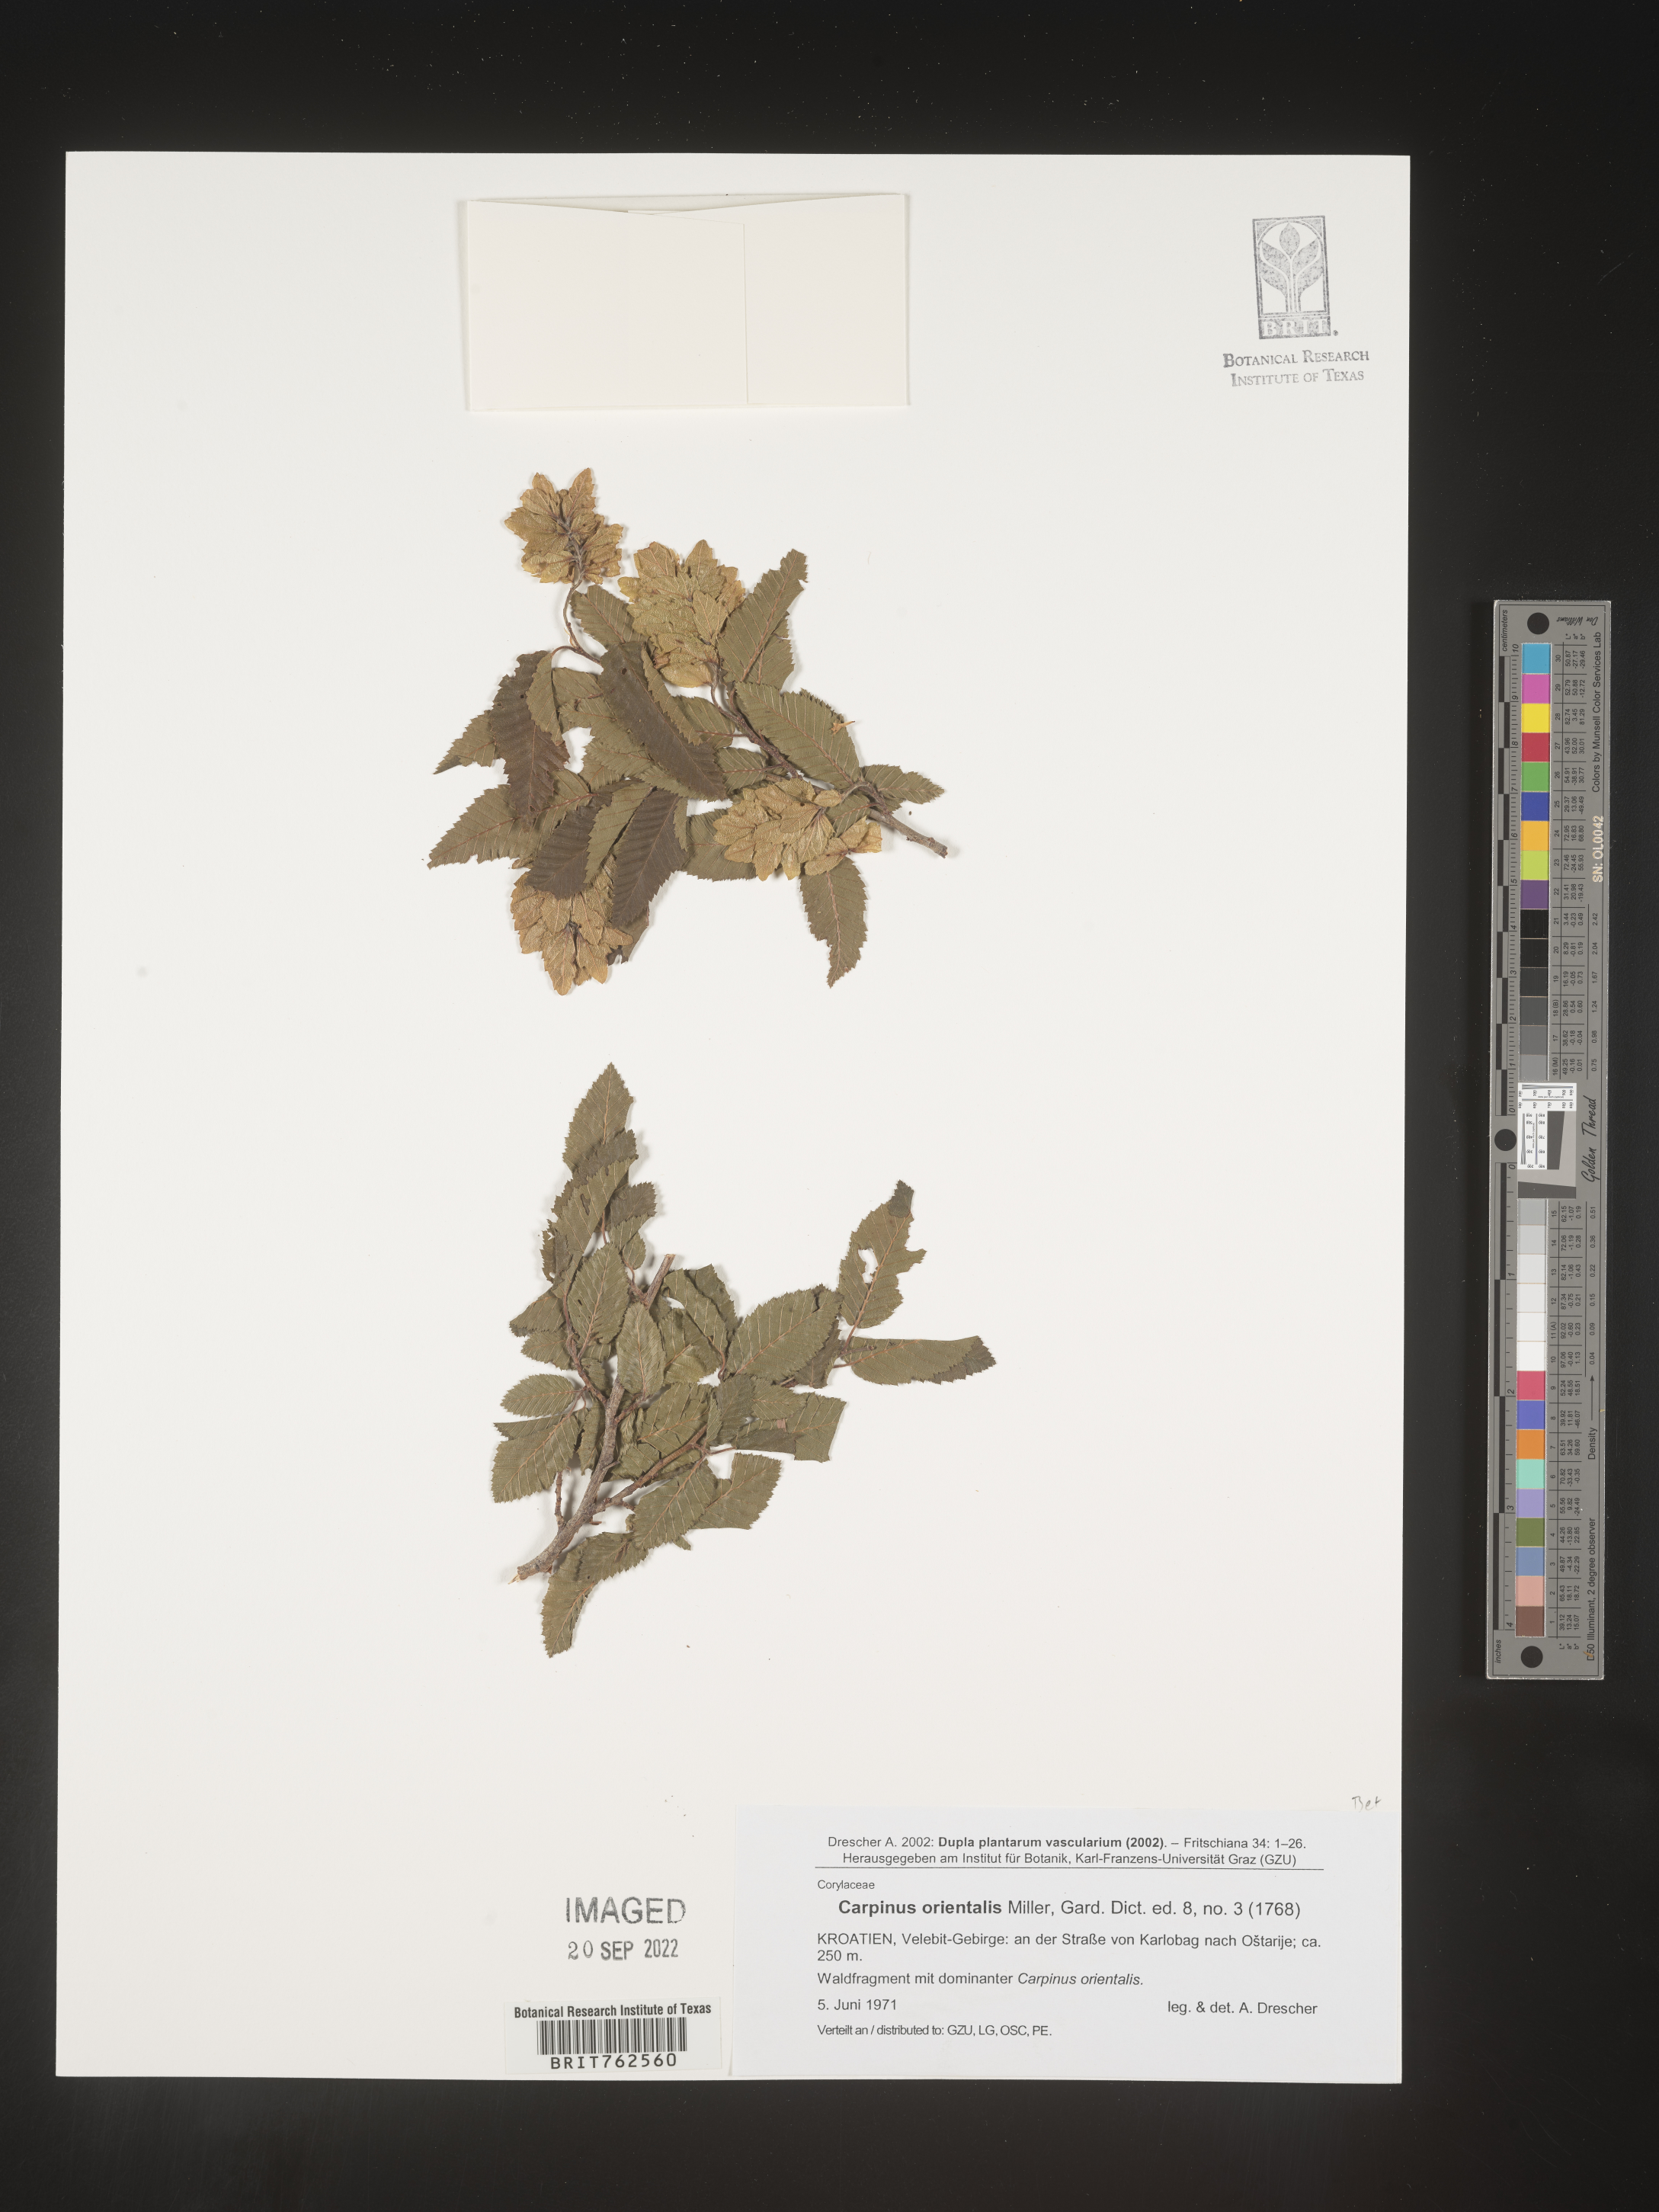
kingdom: Plantae
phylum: Tracheophyta
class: Magnoliopsida
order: Fagales
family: Betulaceae
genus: Carpinus
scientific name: Carpinus
